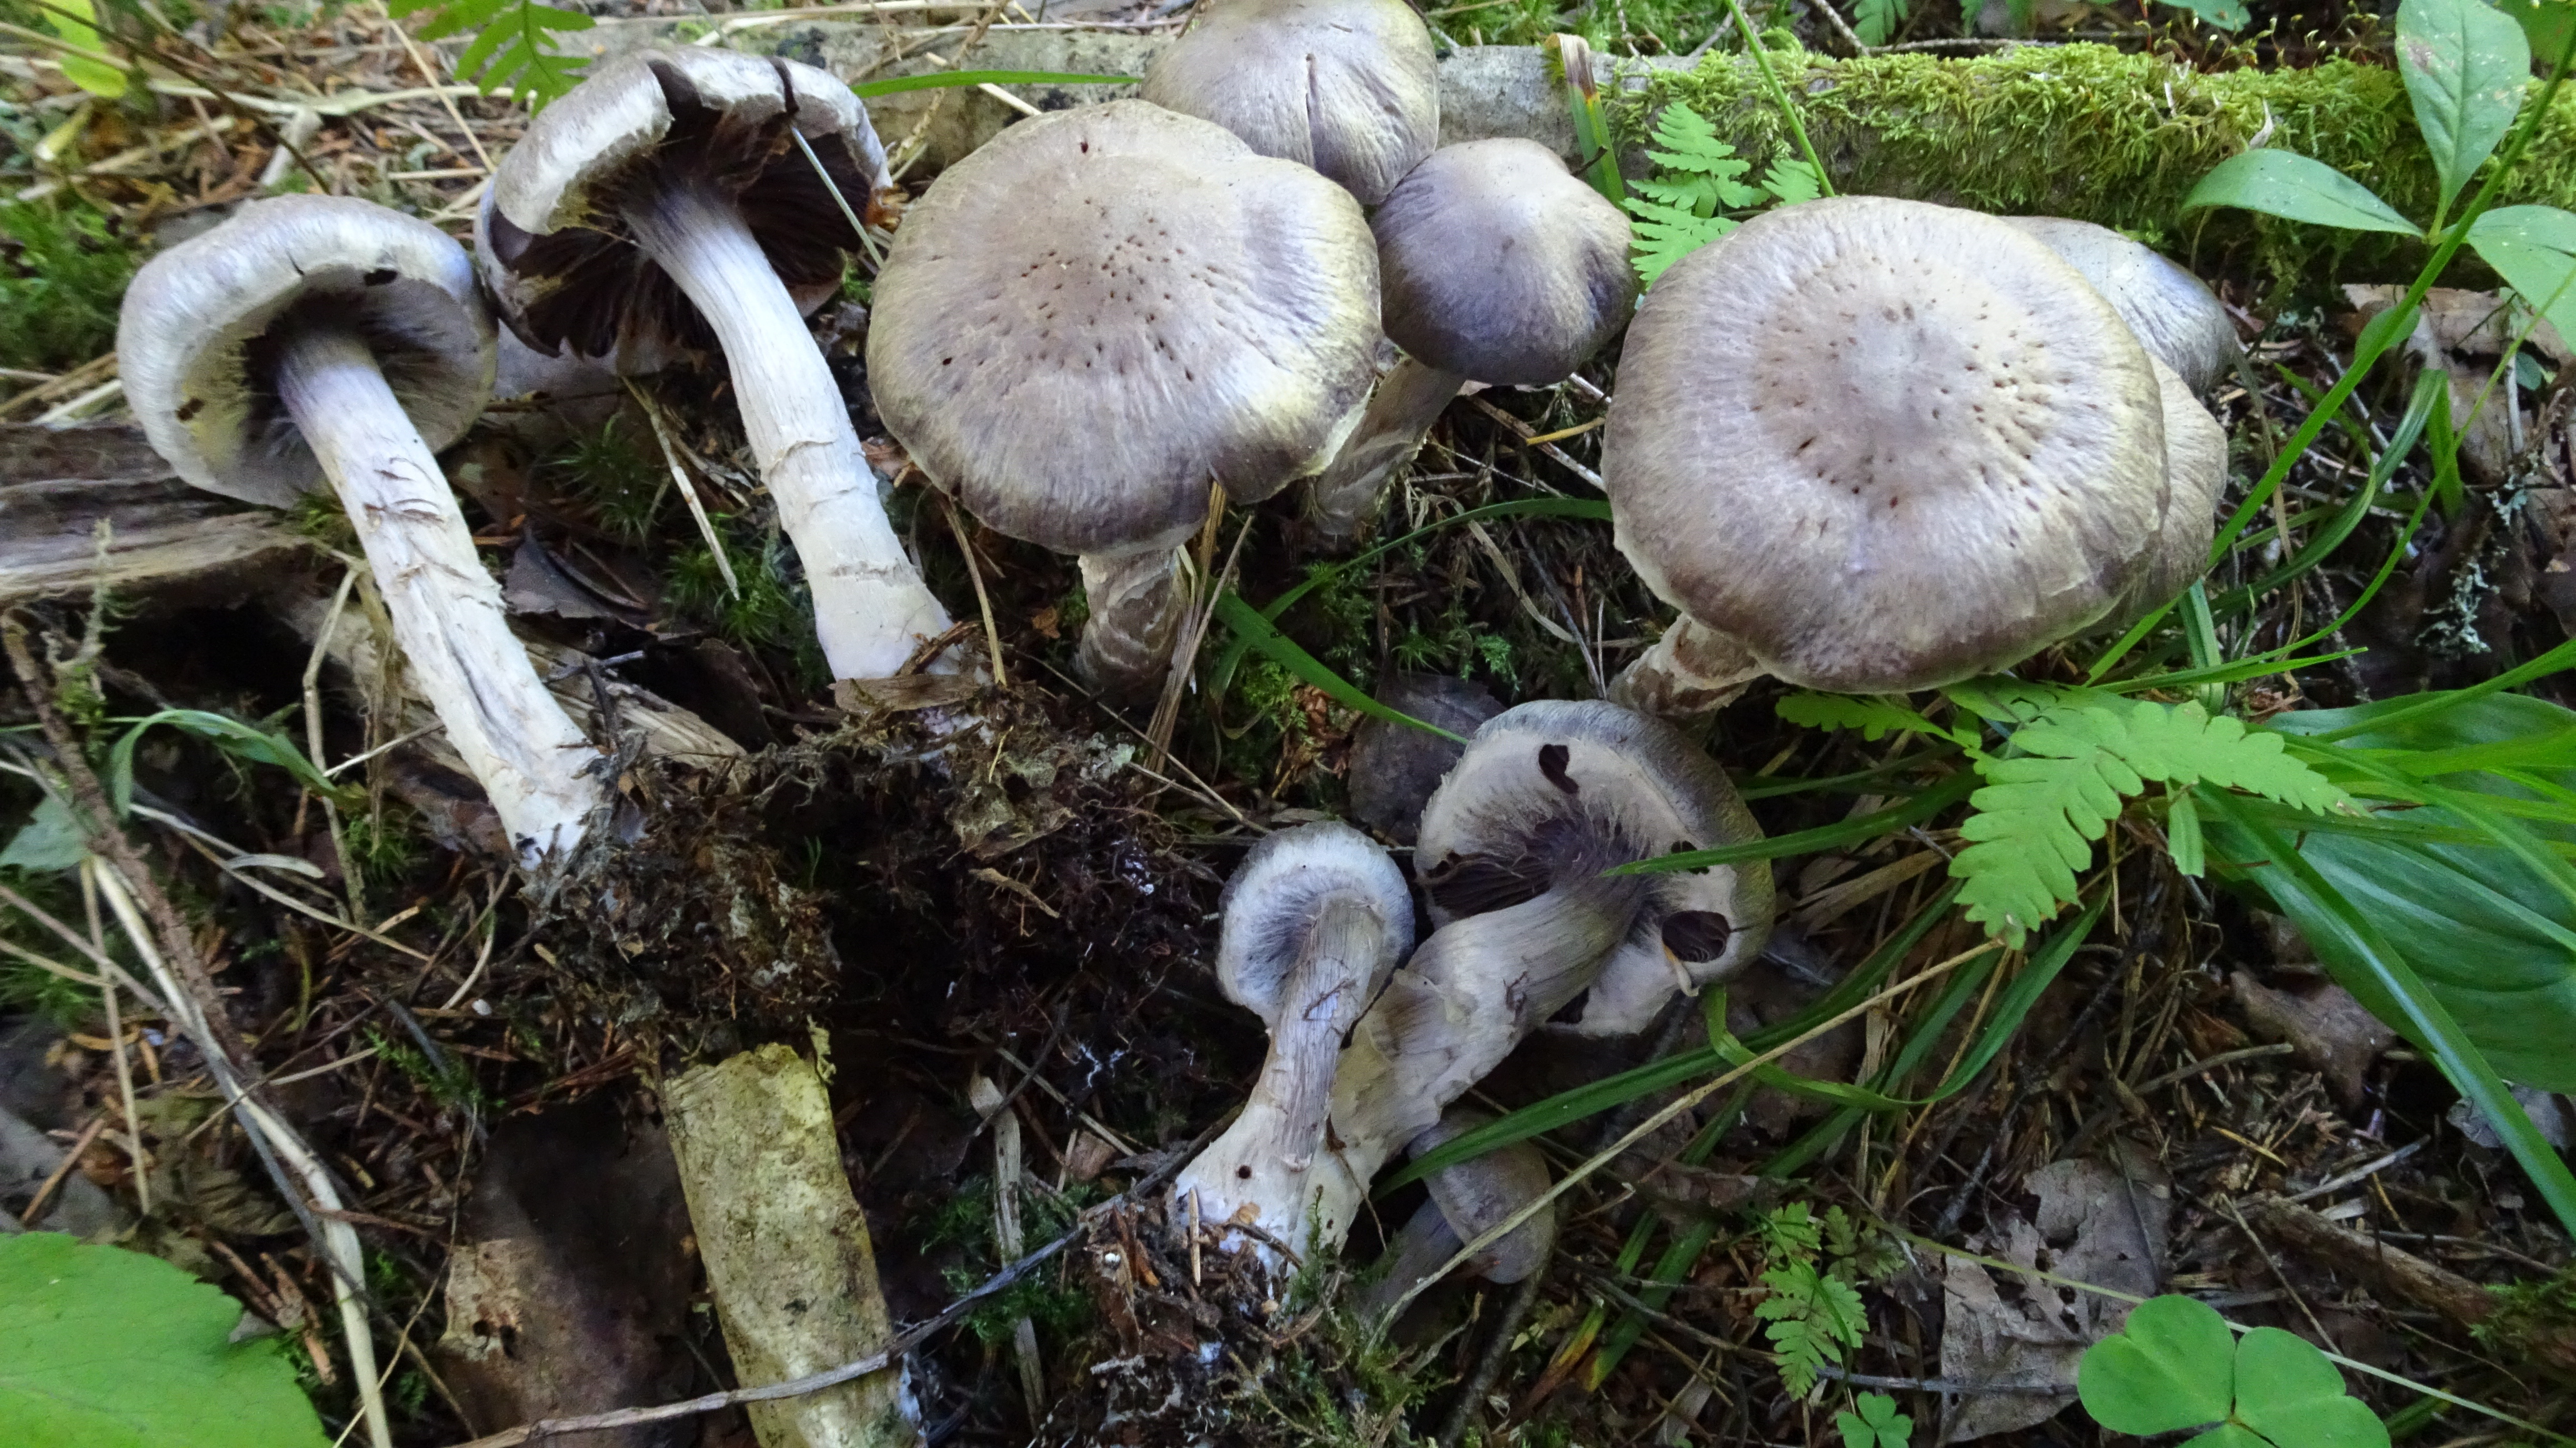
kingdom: Fungi
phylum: Basidiomycota
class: Agaricomycetes
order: Agaricales
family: Cortinariaceae
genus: Cortinarius
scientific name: Cortinarius
